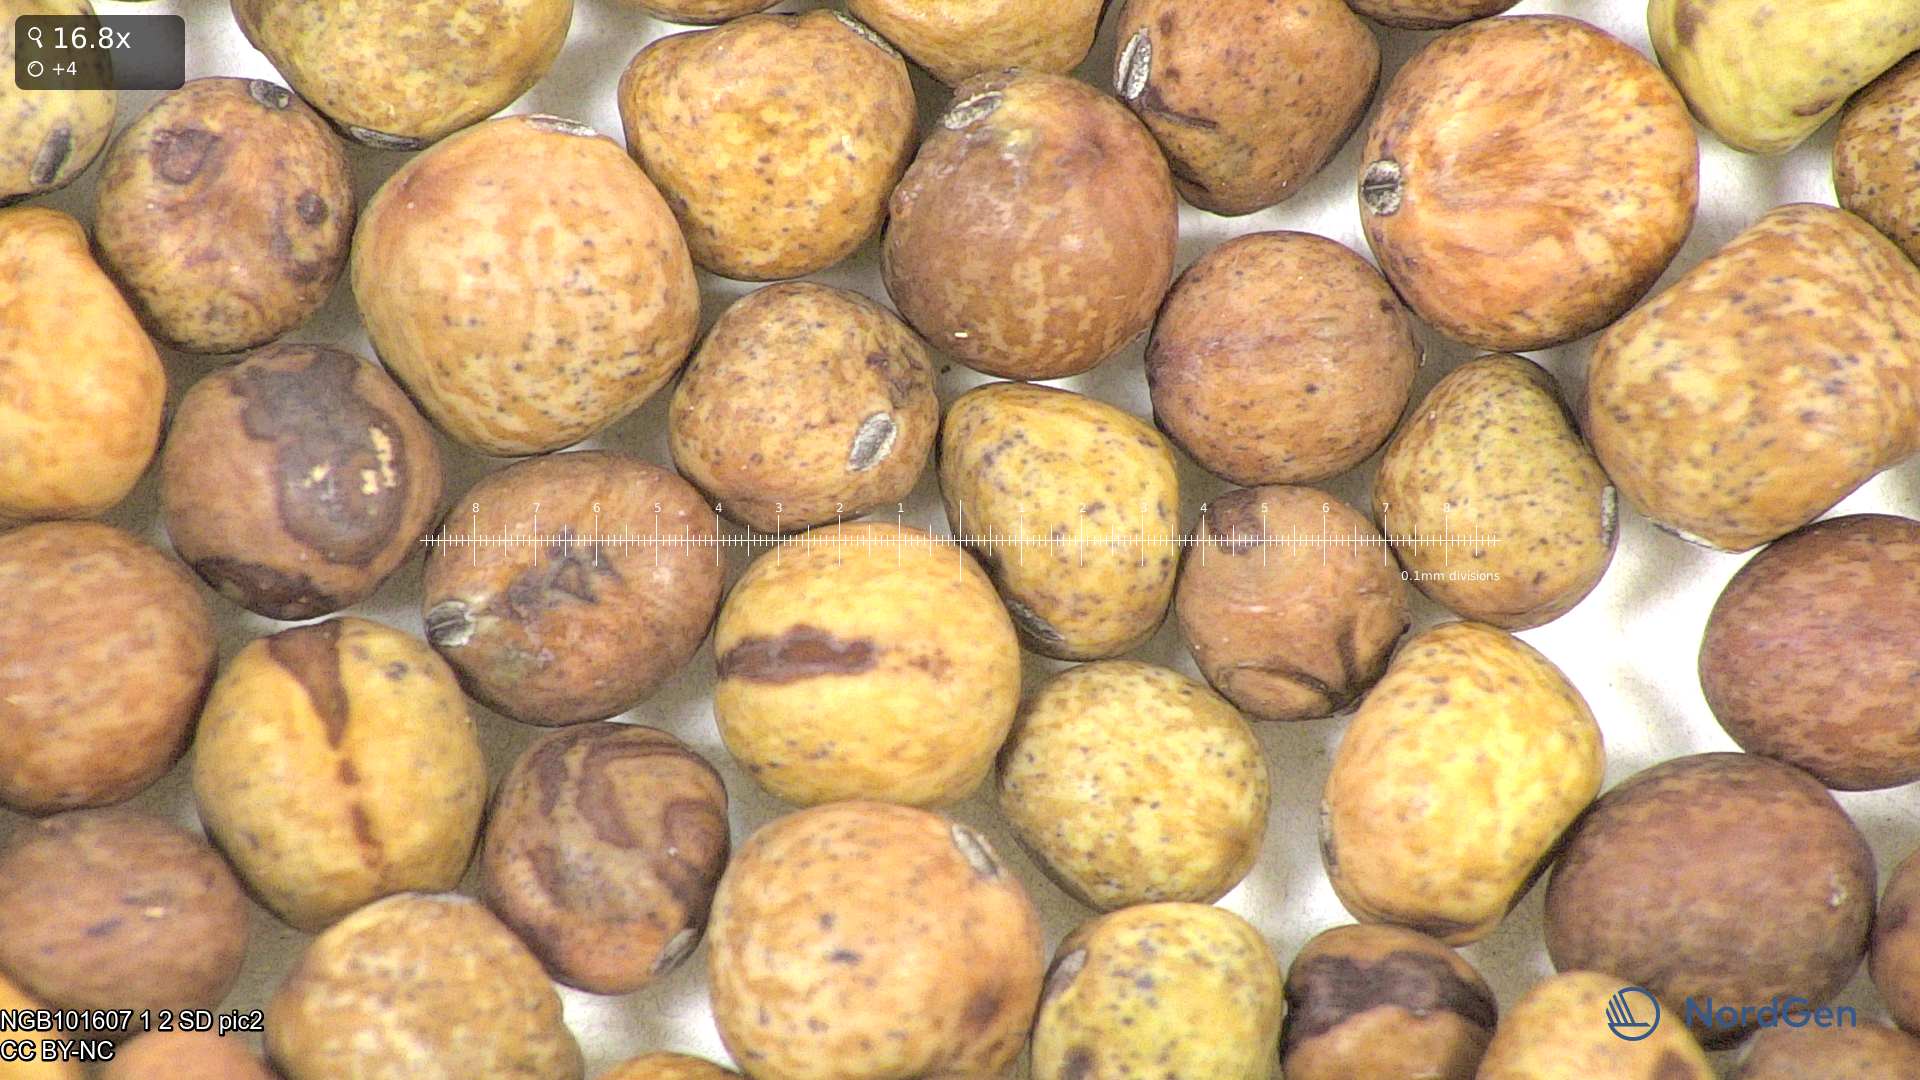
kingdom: Plantae
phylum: Tracheophyta
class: Magnoliopsida
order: Fabales
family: Fabaceae
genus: Lathyrus
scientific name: Lathyrus oleraceus
